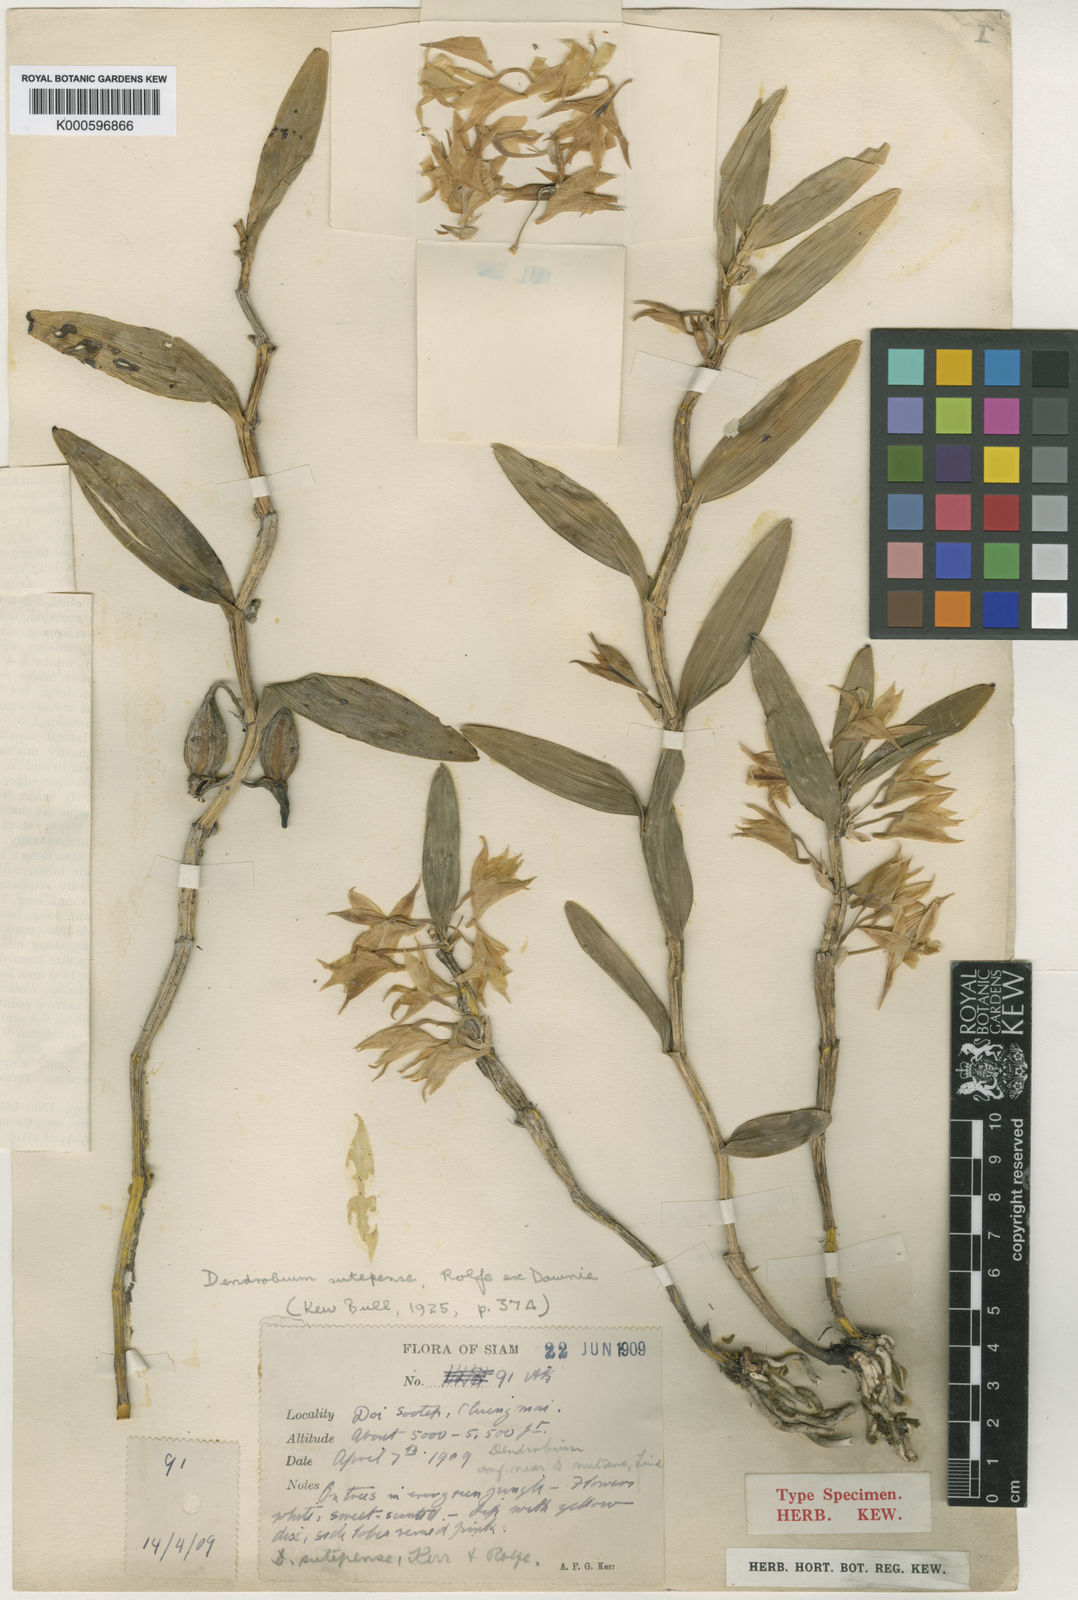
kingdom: Plantae
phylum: Tracheophyta
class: Liliopsida
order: Asparagales
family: Orchidaceae
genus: Dendrobium
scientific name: Dendrobium sutepense
